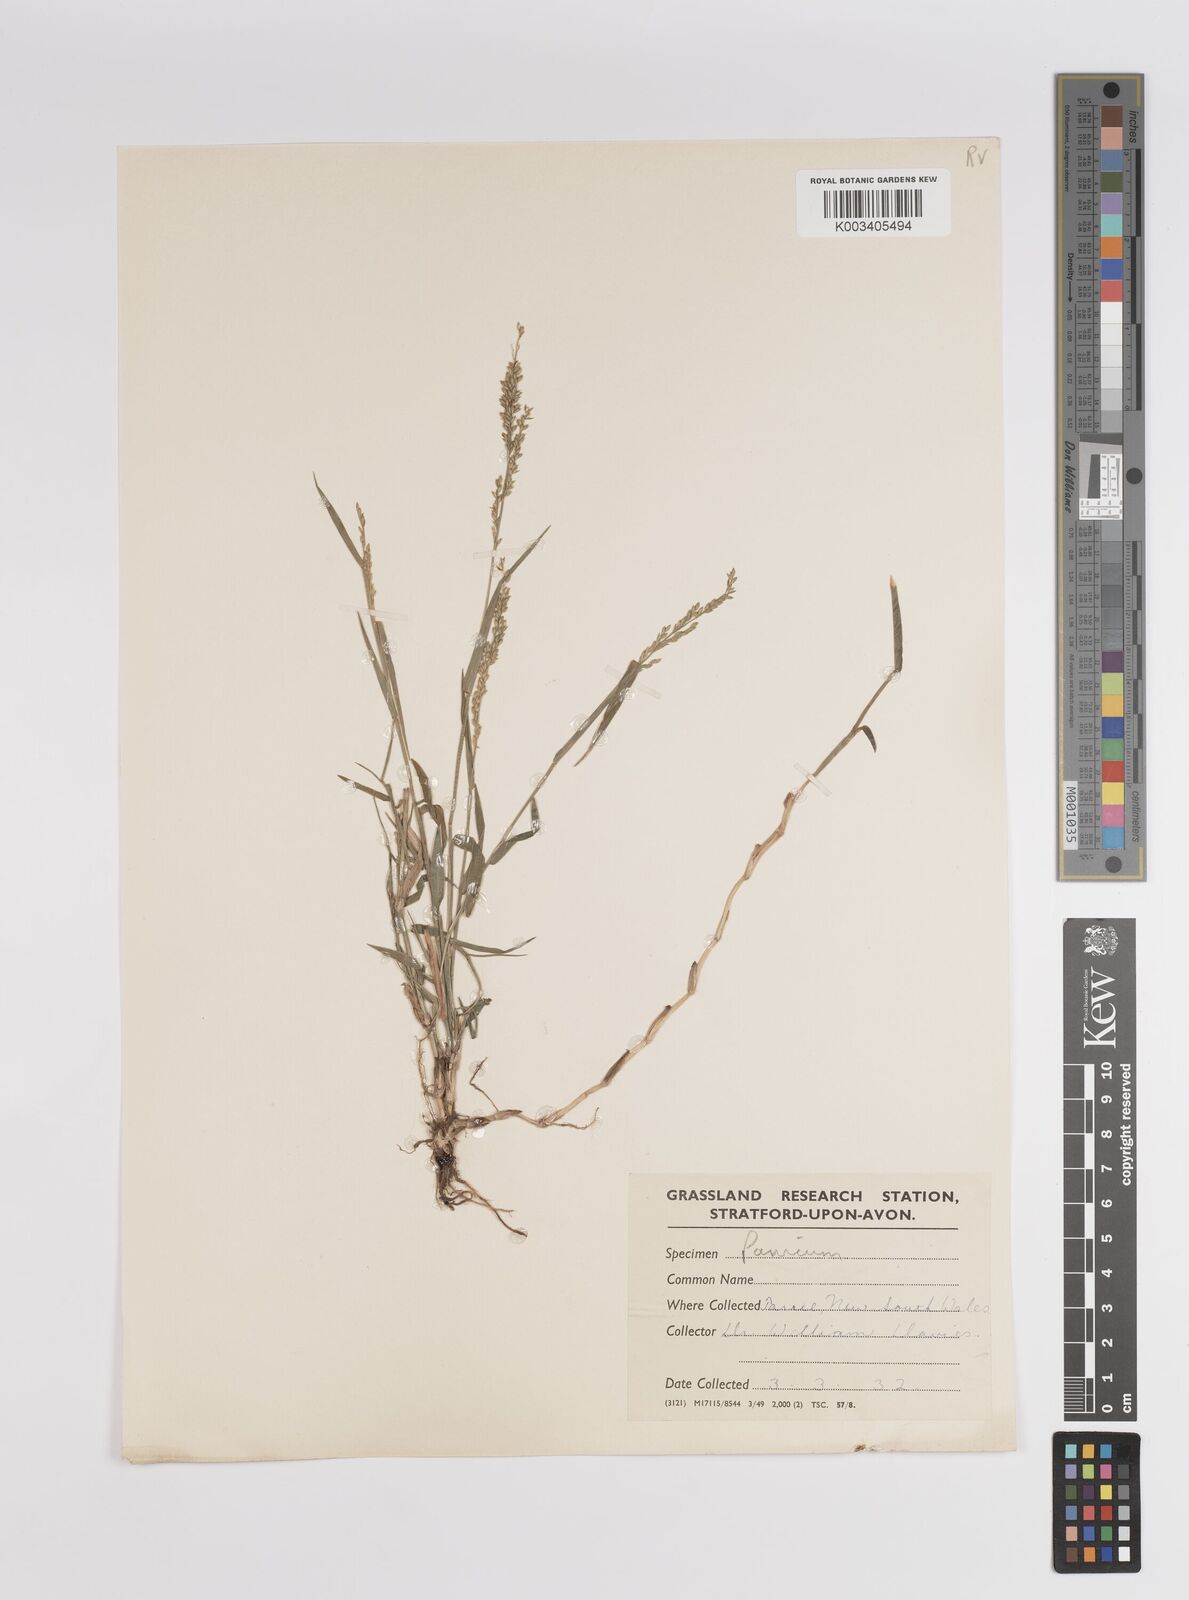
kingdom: Plantae
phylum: Tracheophyta
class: Liliopsida
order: Poales
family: Poaceae
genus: Panicum
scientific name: Panicum
